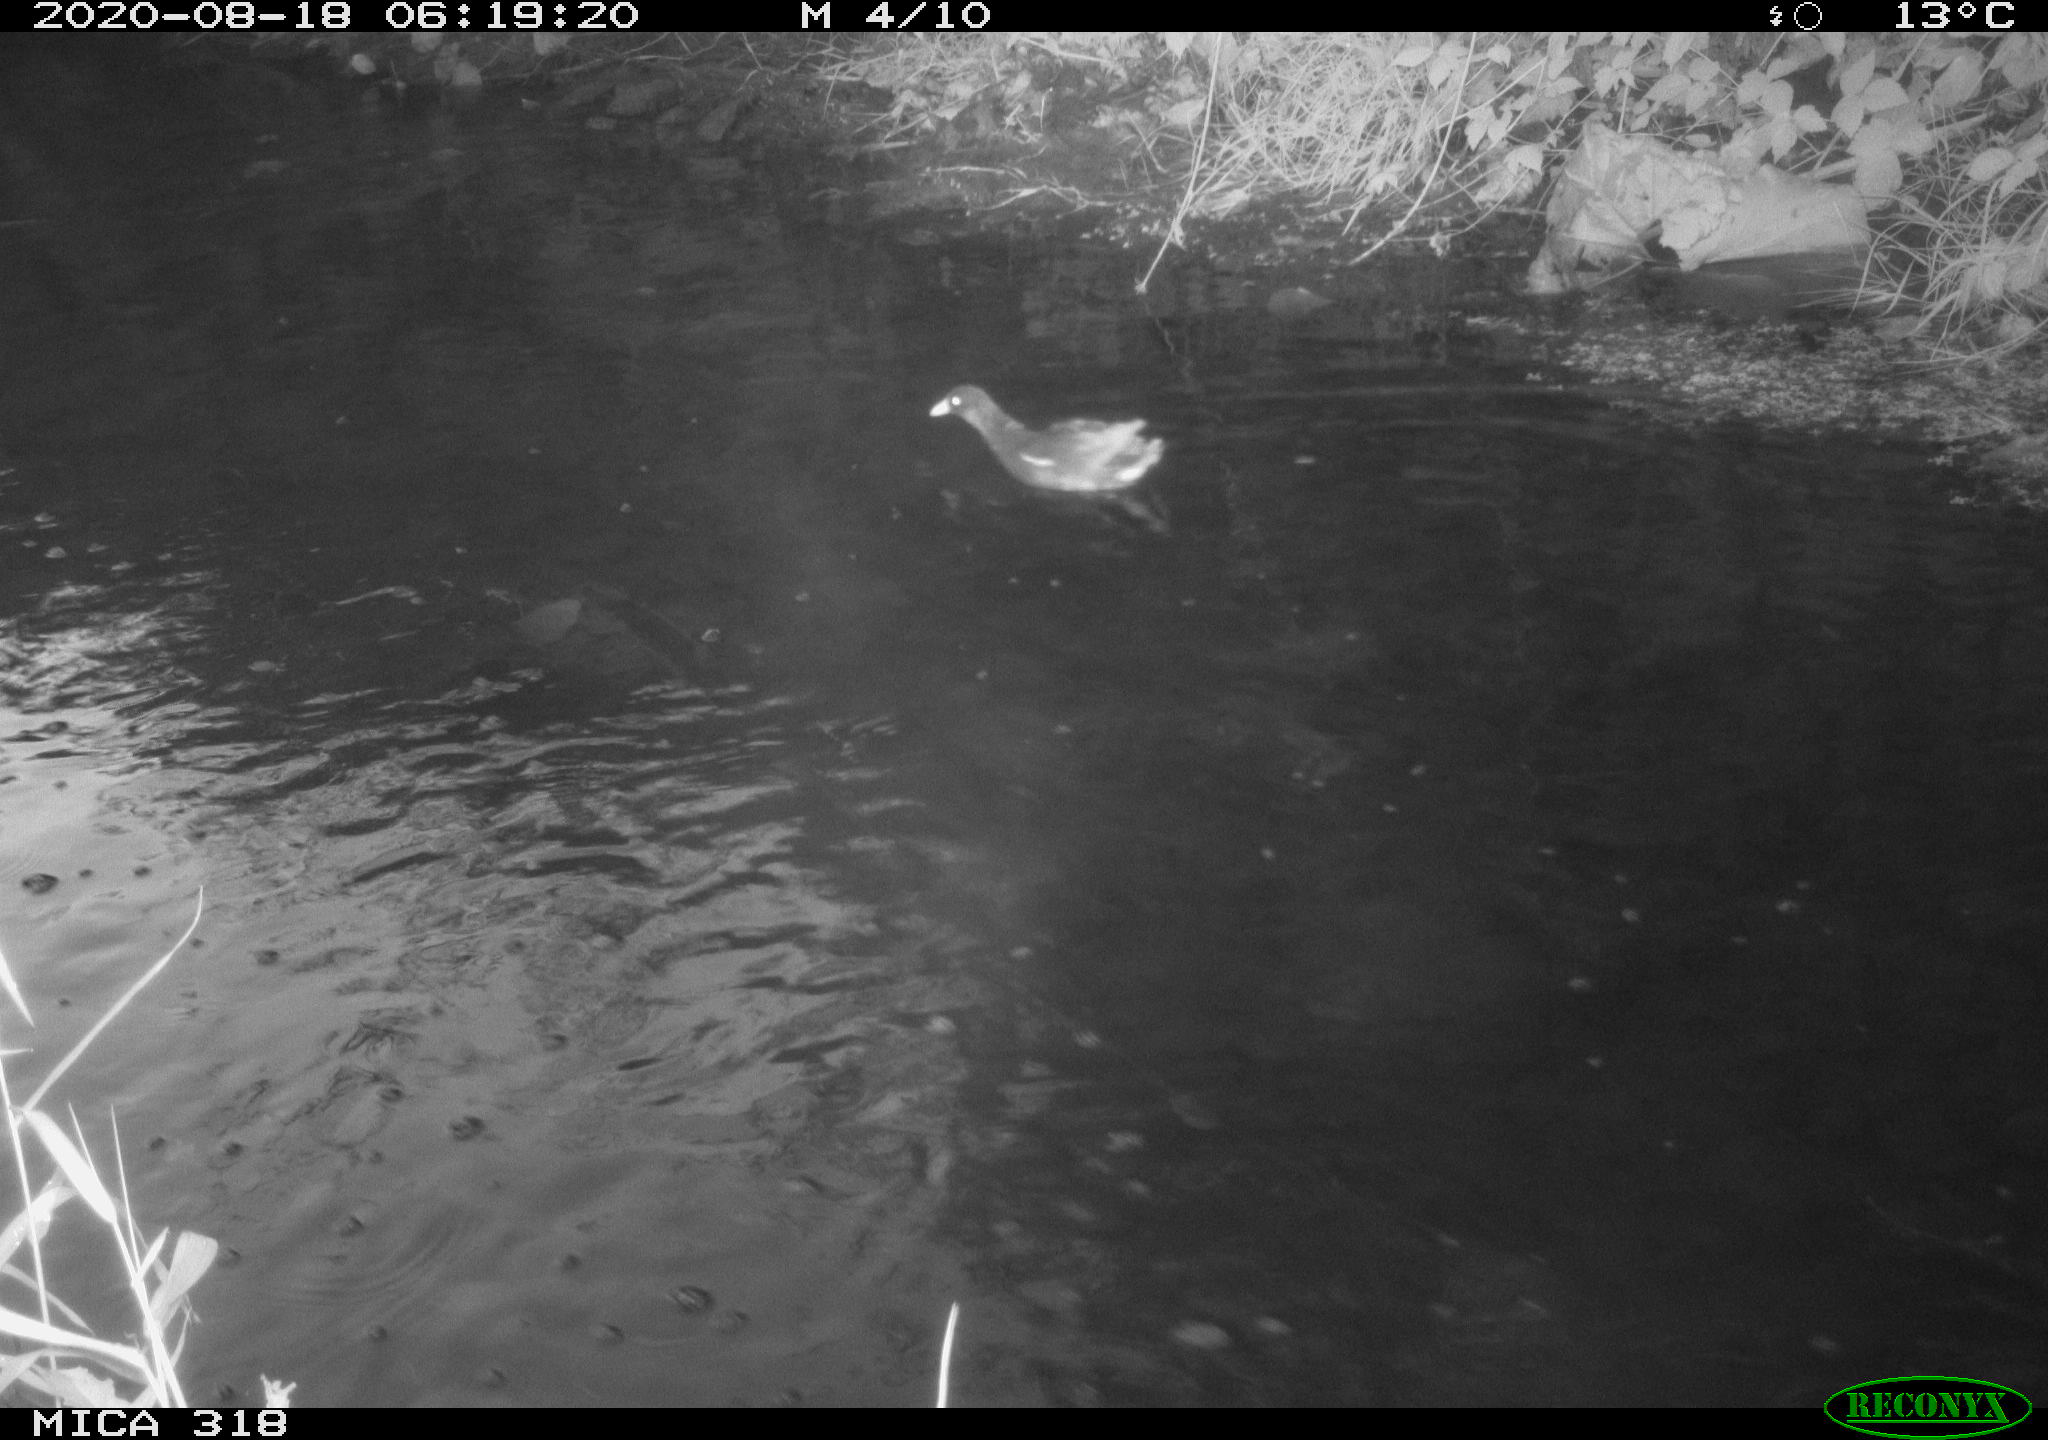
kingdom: Animalia
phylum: Chordata
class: Aves
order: Gruiformes
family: Rallidae
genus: Gallinula
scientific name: Gallinula chloropus
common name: Common moorhen
